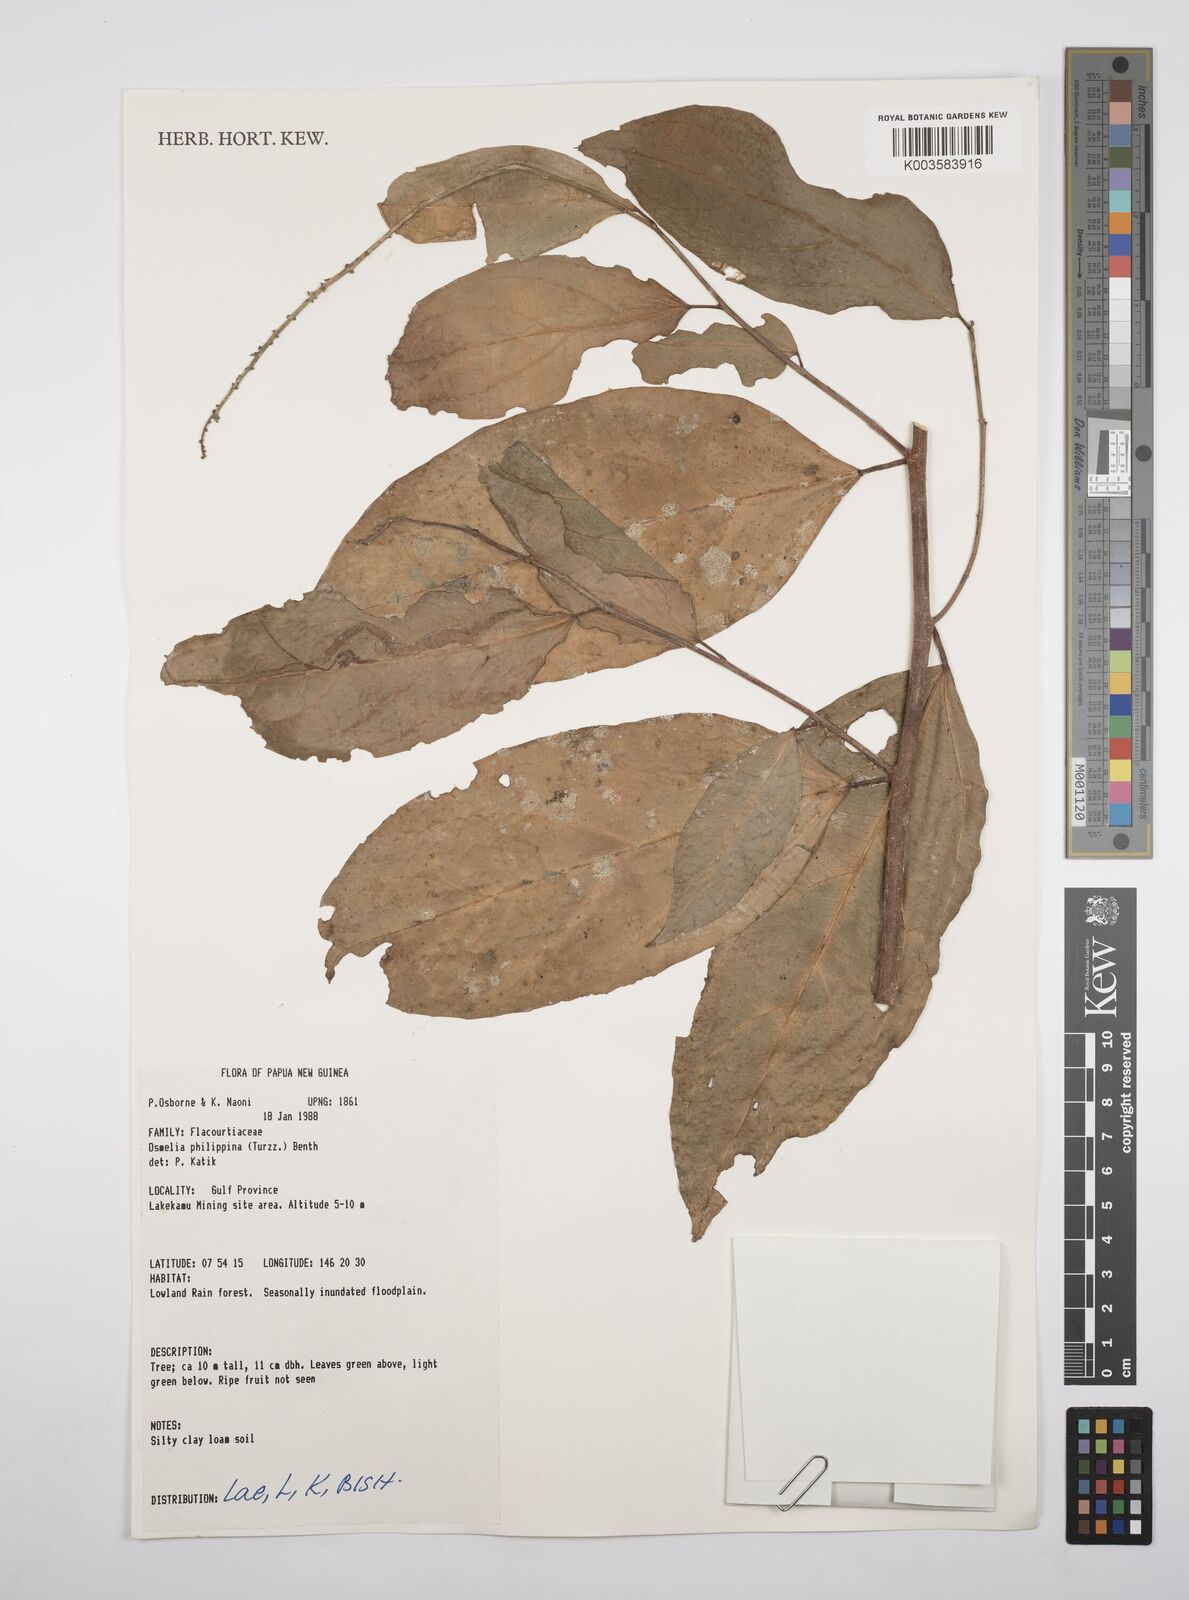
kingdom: Plantae
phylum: Tracheophyta
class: Magnoliopsida
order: Malpighiales
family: Salicaceae
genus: Osmelia
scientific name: Osmelia philippina
